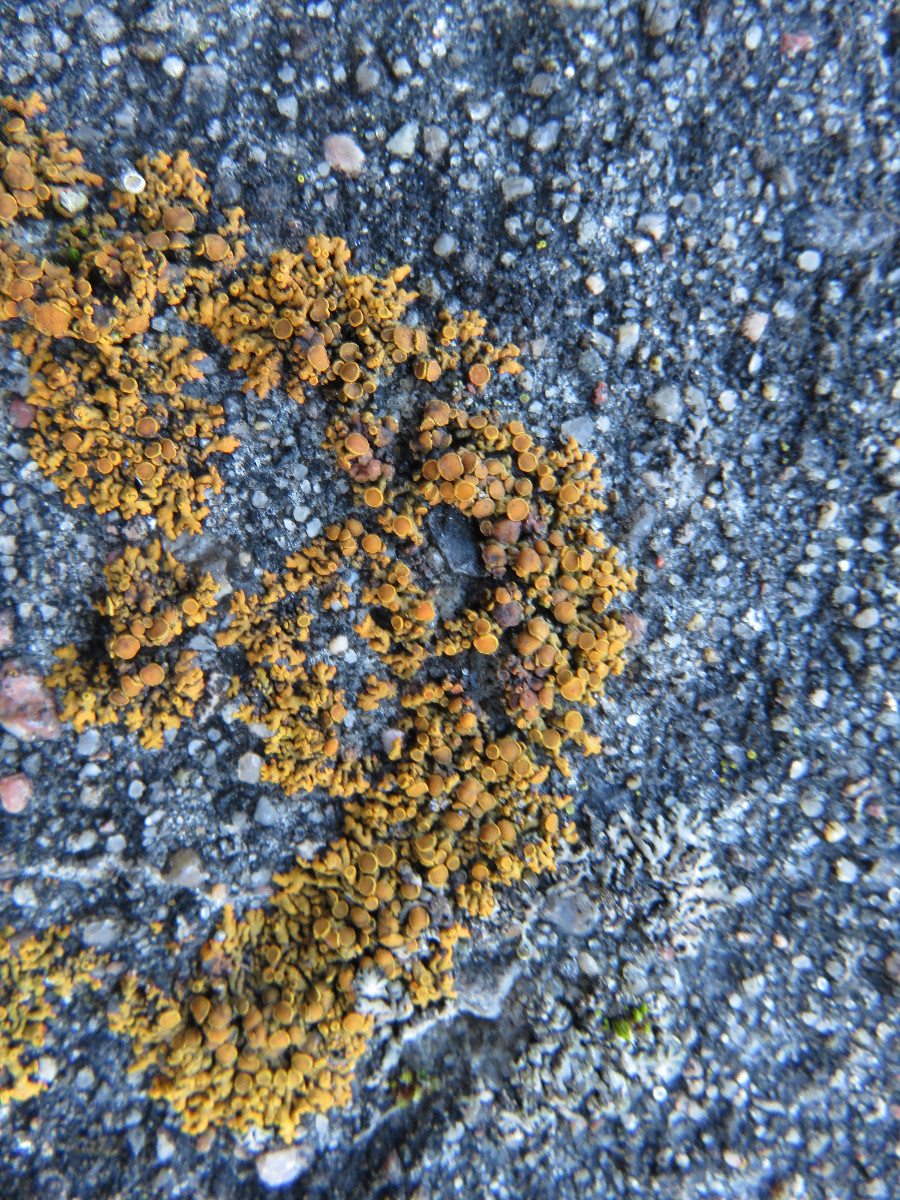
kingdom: Fungi
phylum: Ascomycota
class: Lecanoromycetes
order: Teloschistales
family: Teloschistaceae
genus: Xanthoria
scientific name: Xanthoria elegans
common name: fjeld-væggelav
